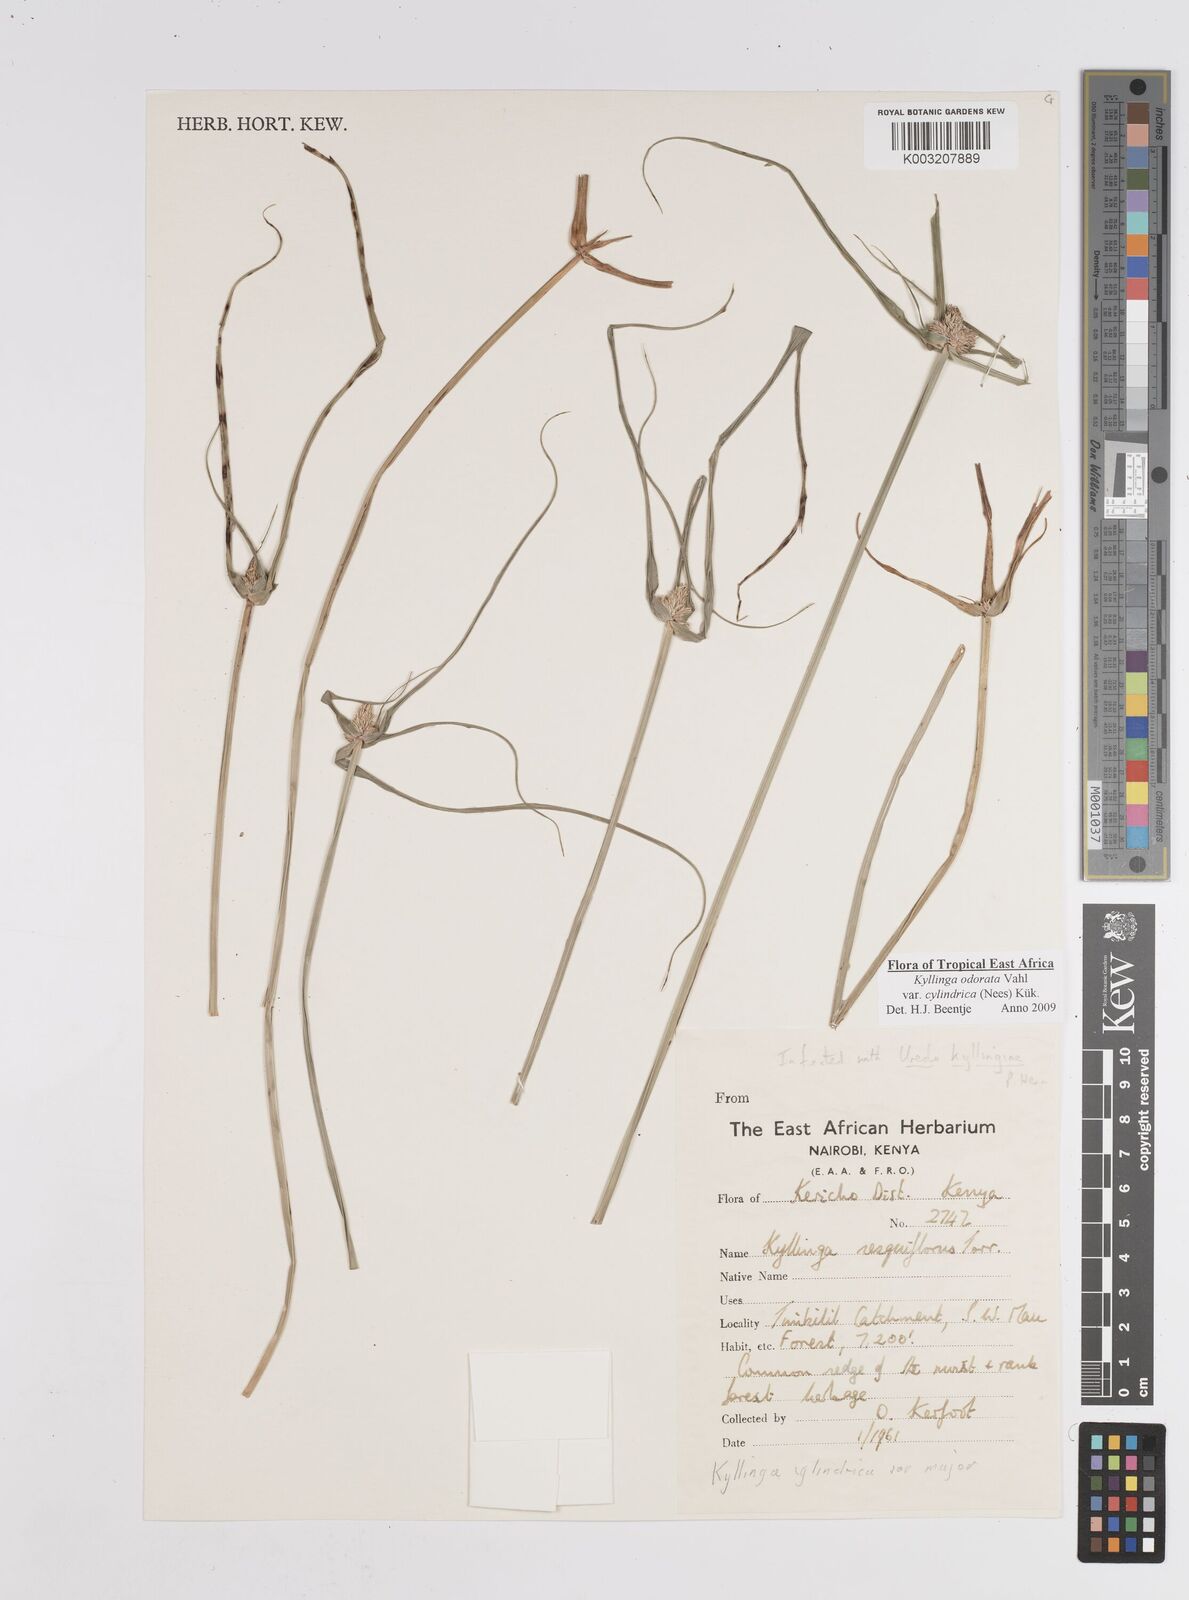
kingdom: Plantae
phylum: Tracheophyta
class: Liliopsida
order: Poales
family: Cyperaceae
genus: Cyperus
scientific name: Cyperus
